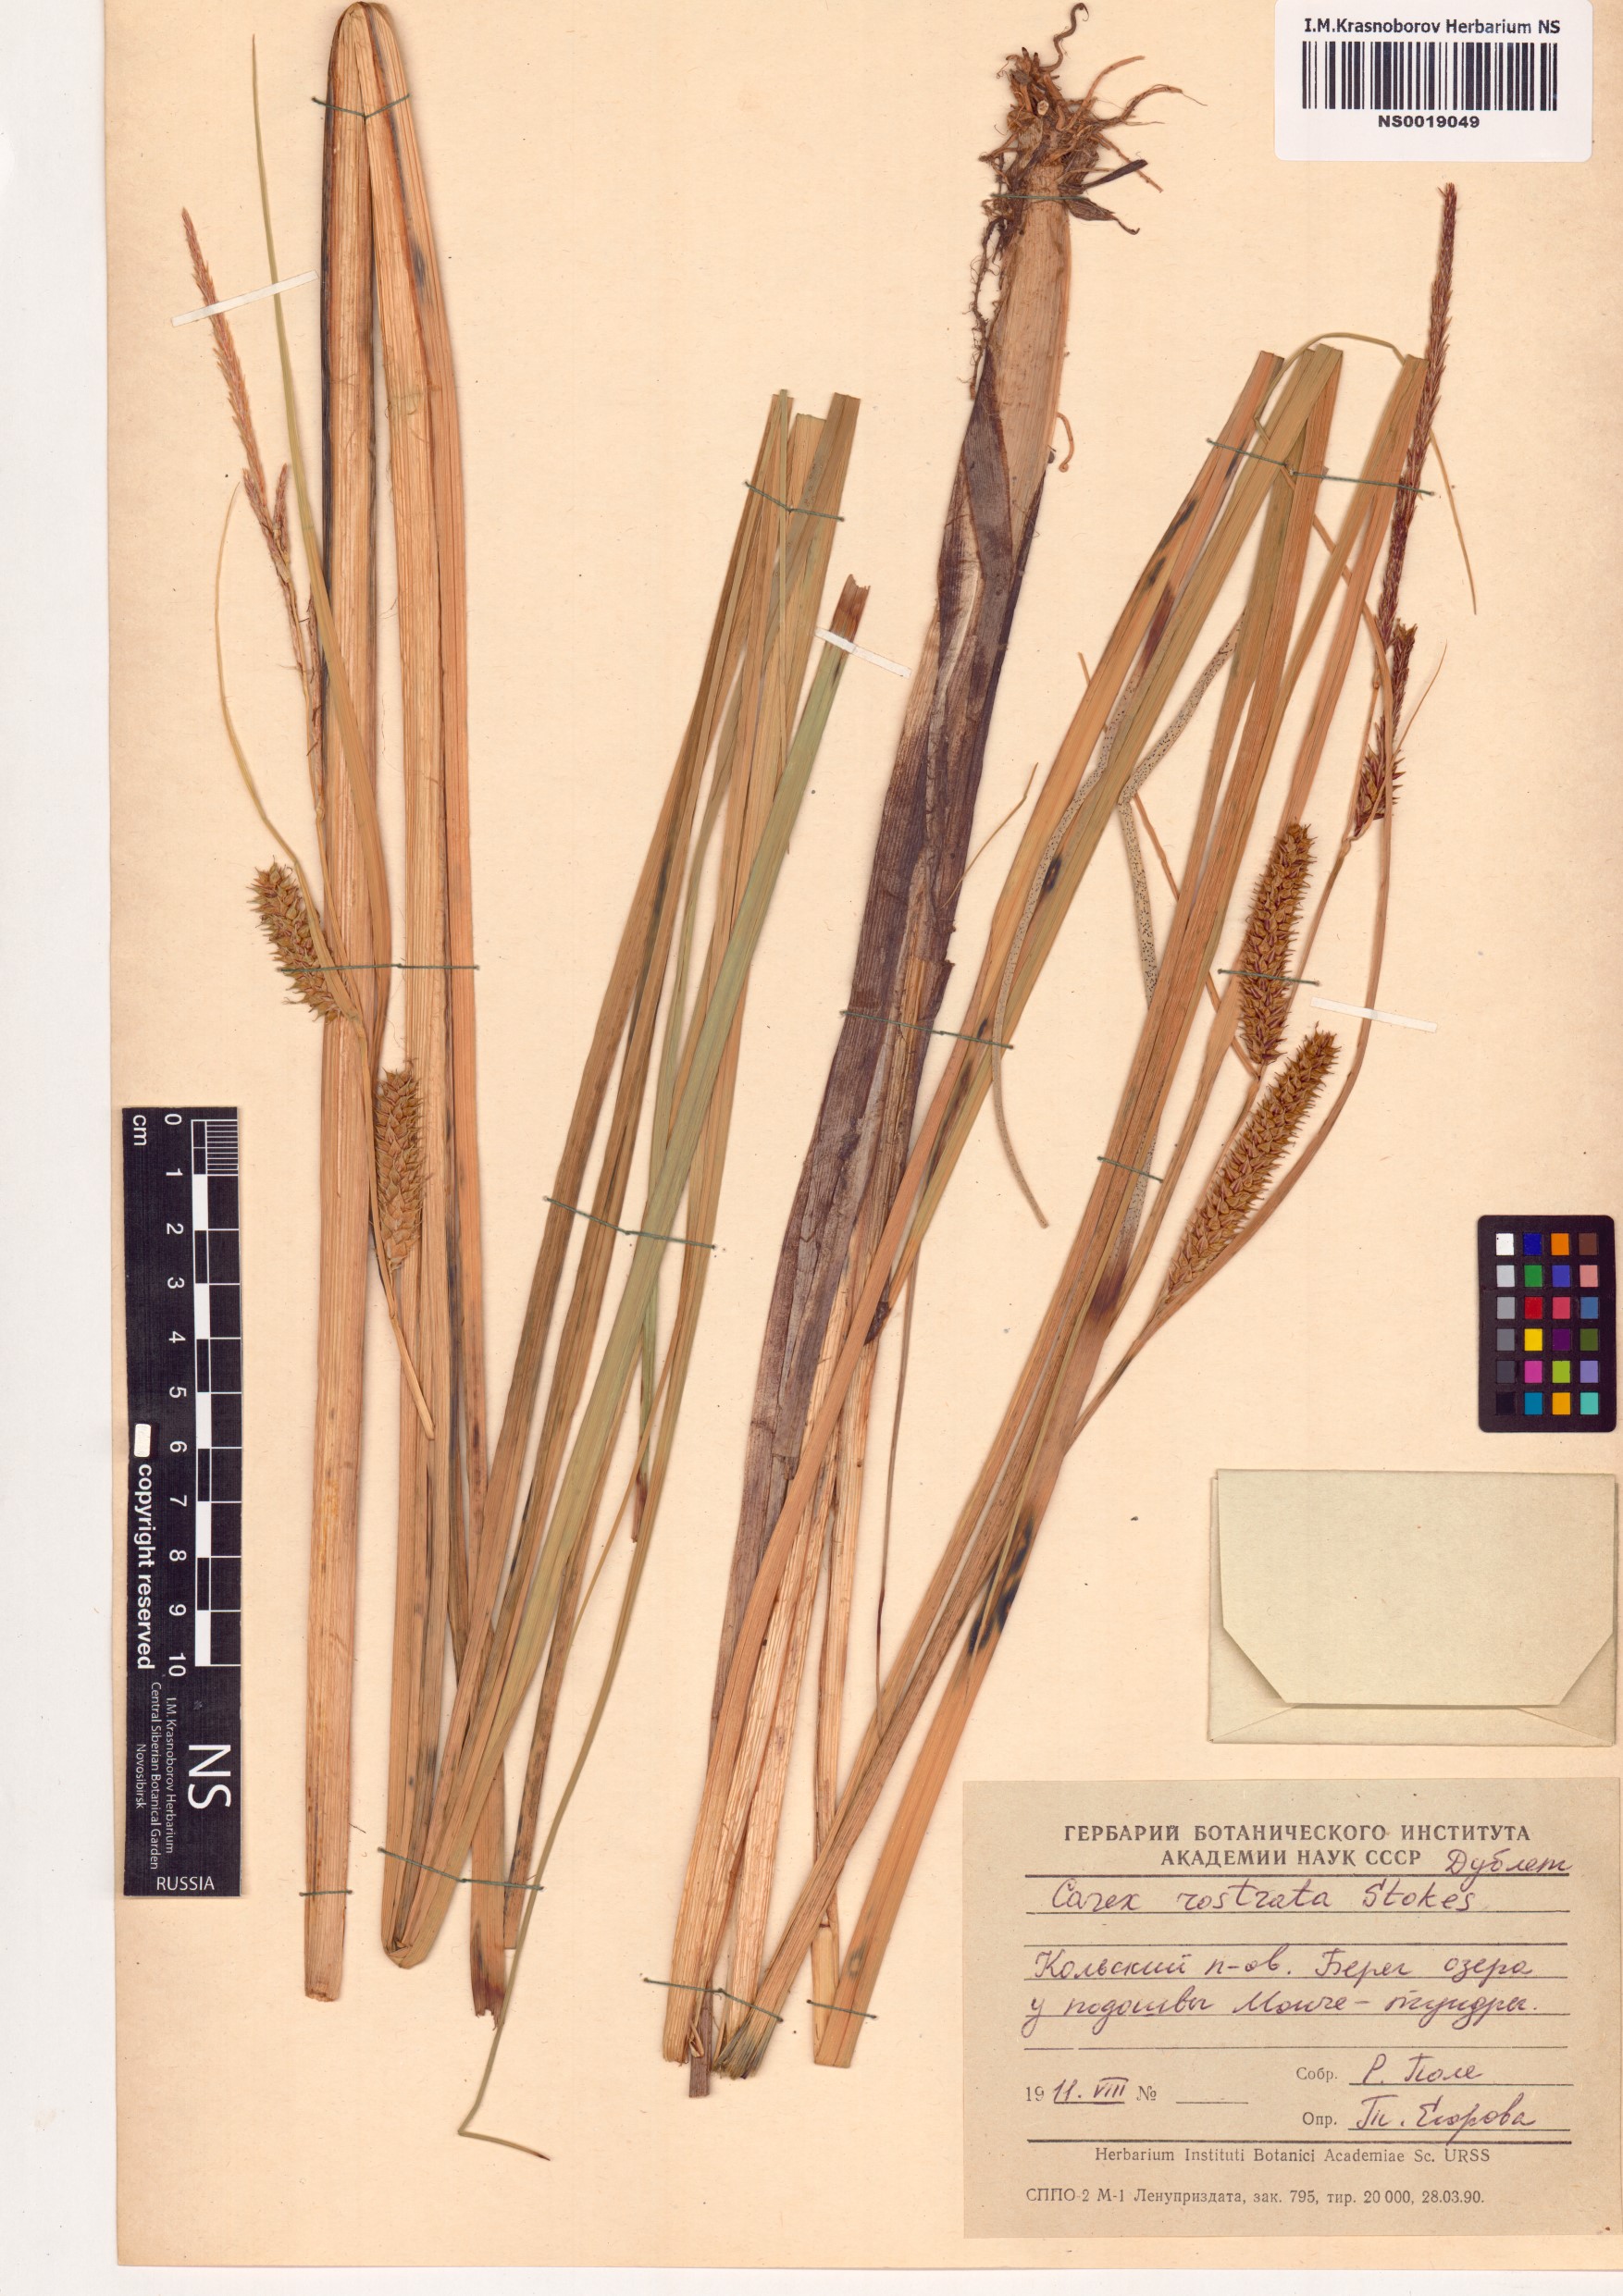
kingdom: Plantae
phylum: Tracheophyta
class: Liliopsida
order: Poales
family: Cyperaceae
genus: Carex
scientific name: Carex rostrata
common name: Bottle sedge
